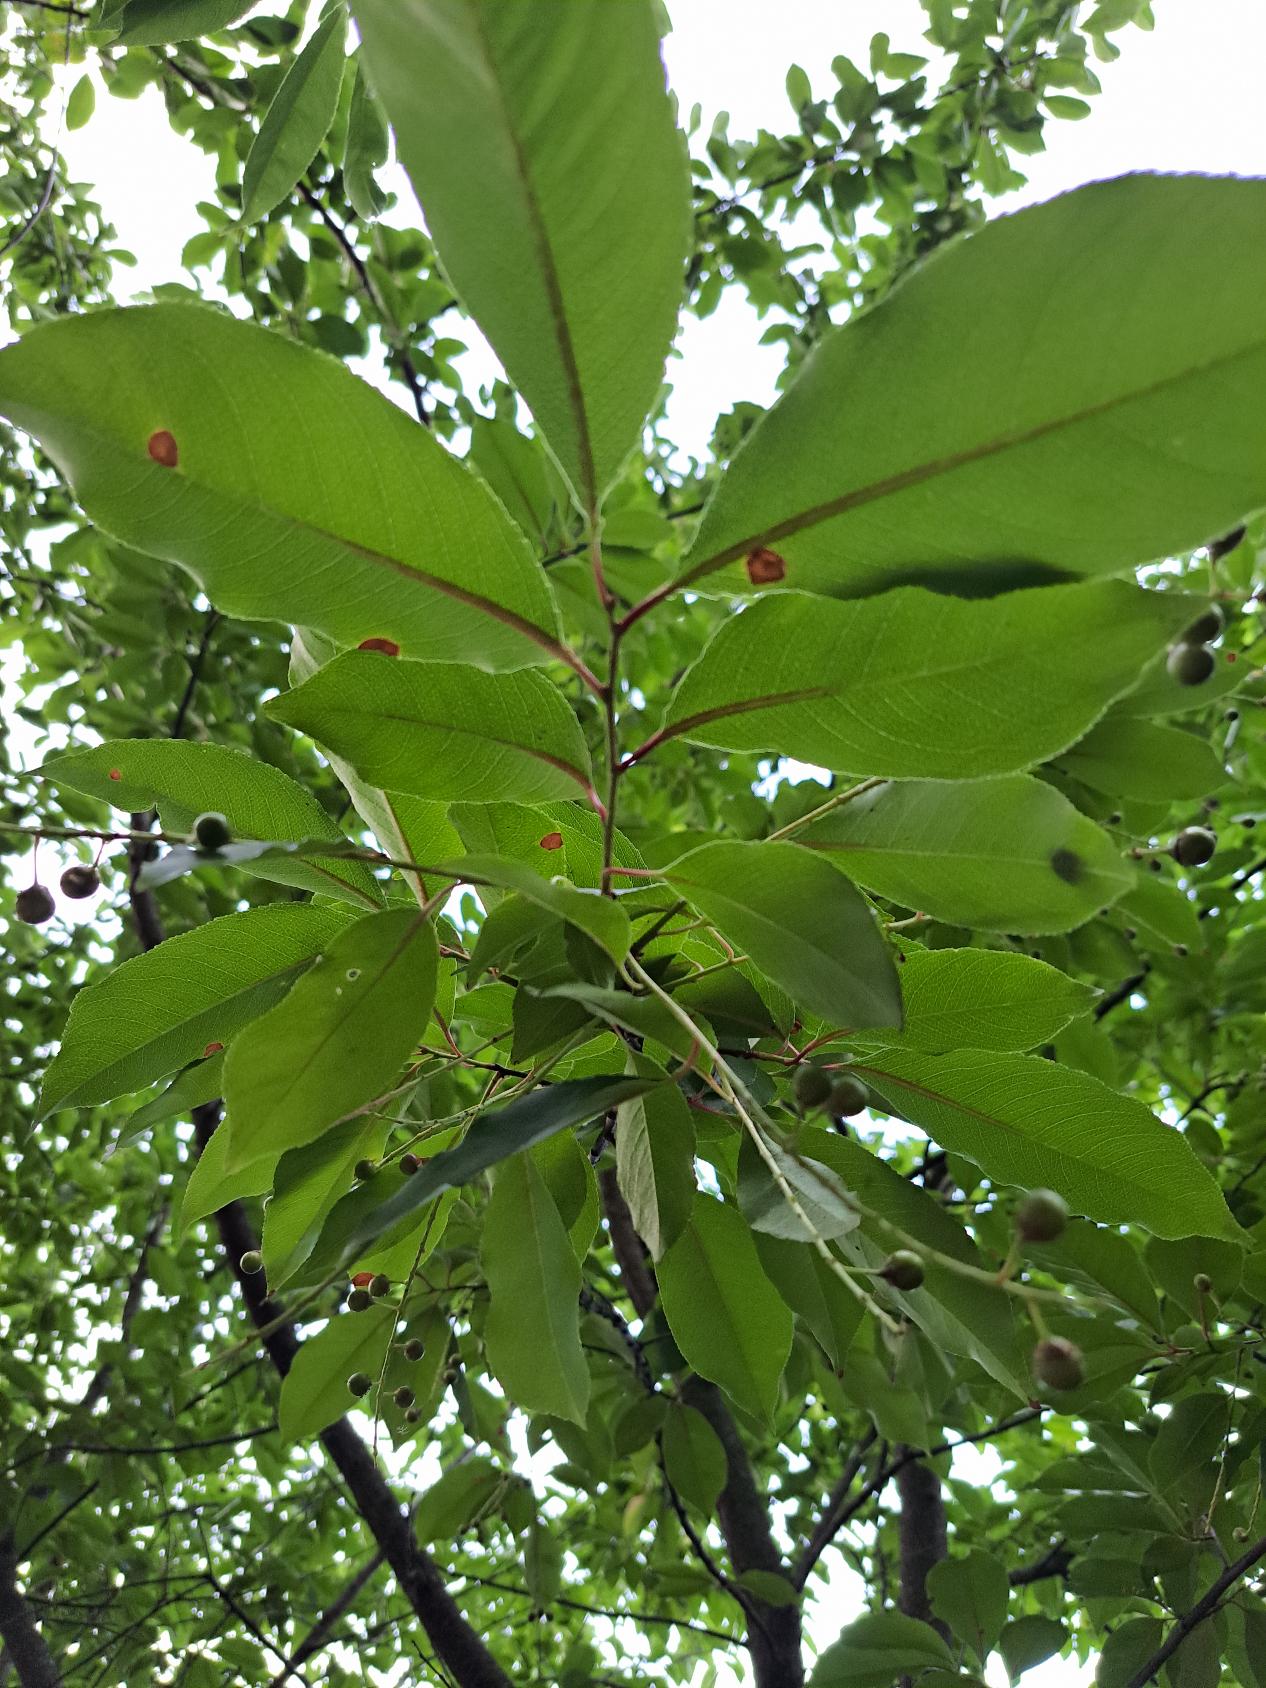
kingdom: Plantae
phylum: Tracheophyta
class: Magnoliopsida
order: Rosales
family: Rosaceae
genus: Prunus
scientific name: Prunus serotina
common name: Glansbladet hæg
